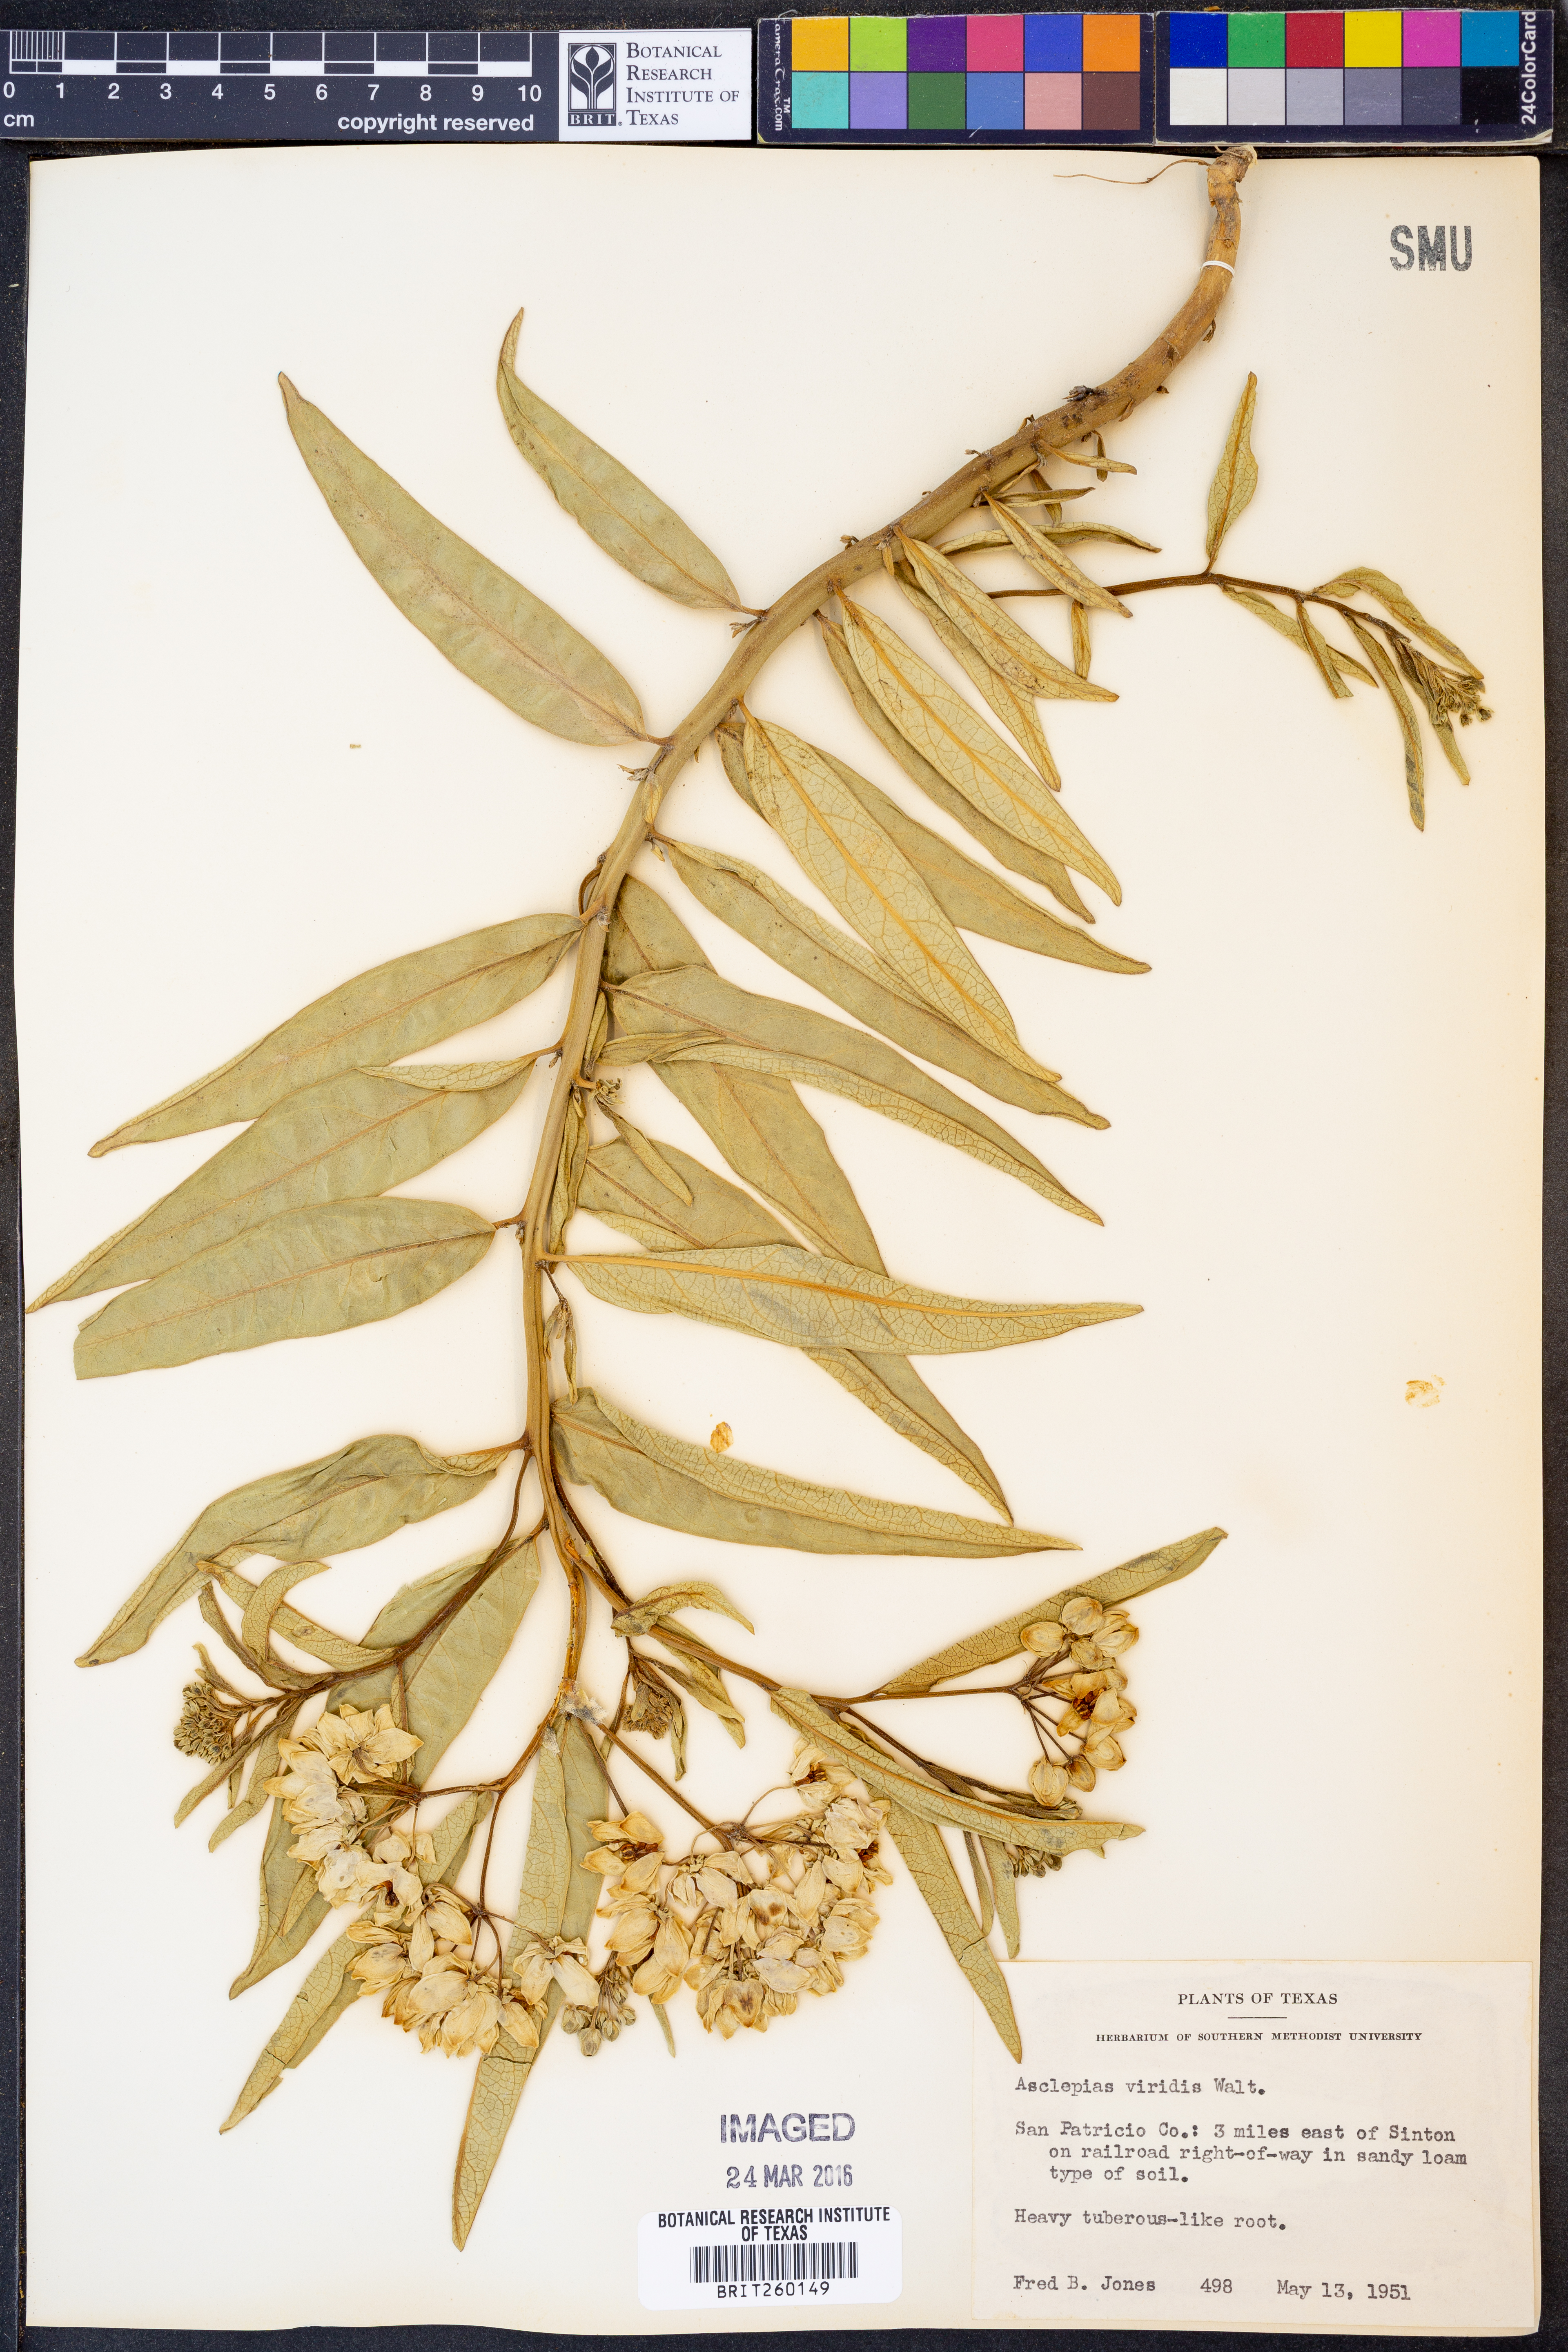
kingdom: Plantae
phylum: Tracheophyta
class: Magnoliopsida
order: Gentianales
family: Apocynaceae
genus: Asclepias
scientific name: Asclepias viridis
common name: Antelope-horns
